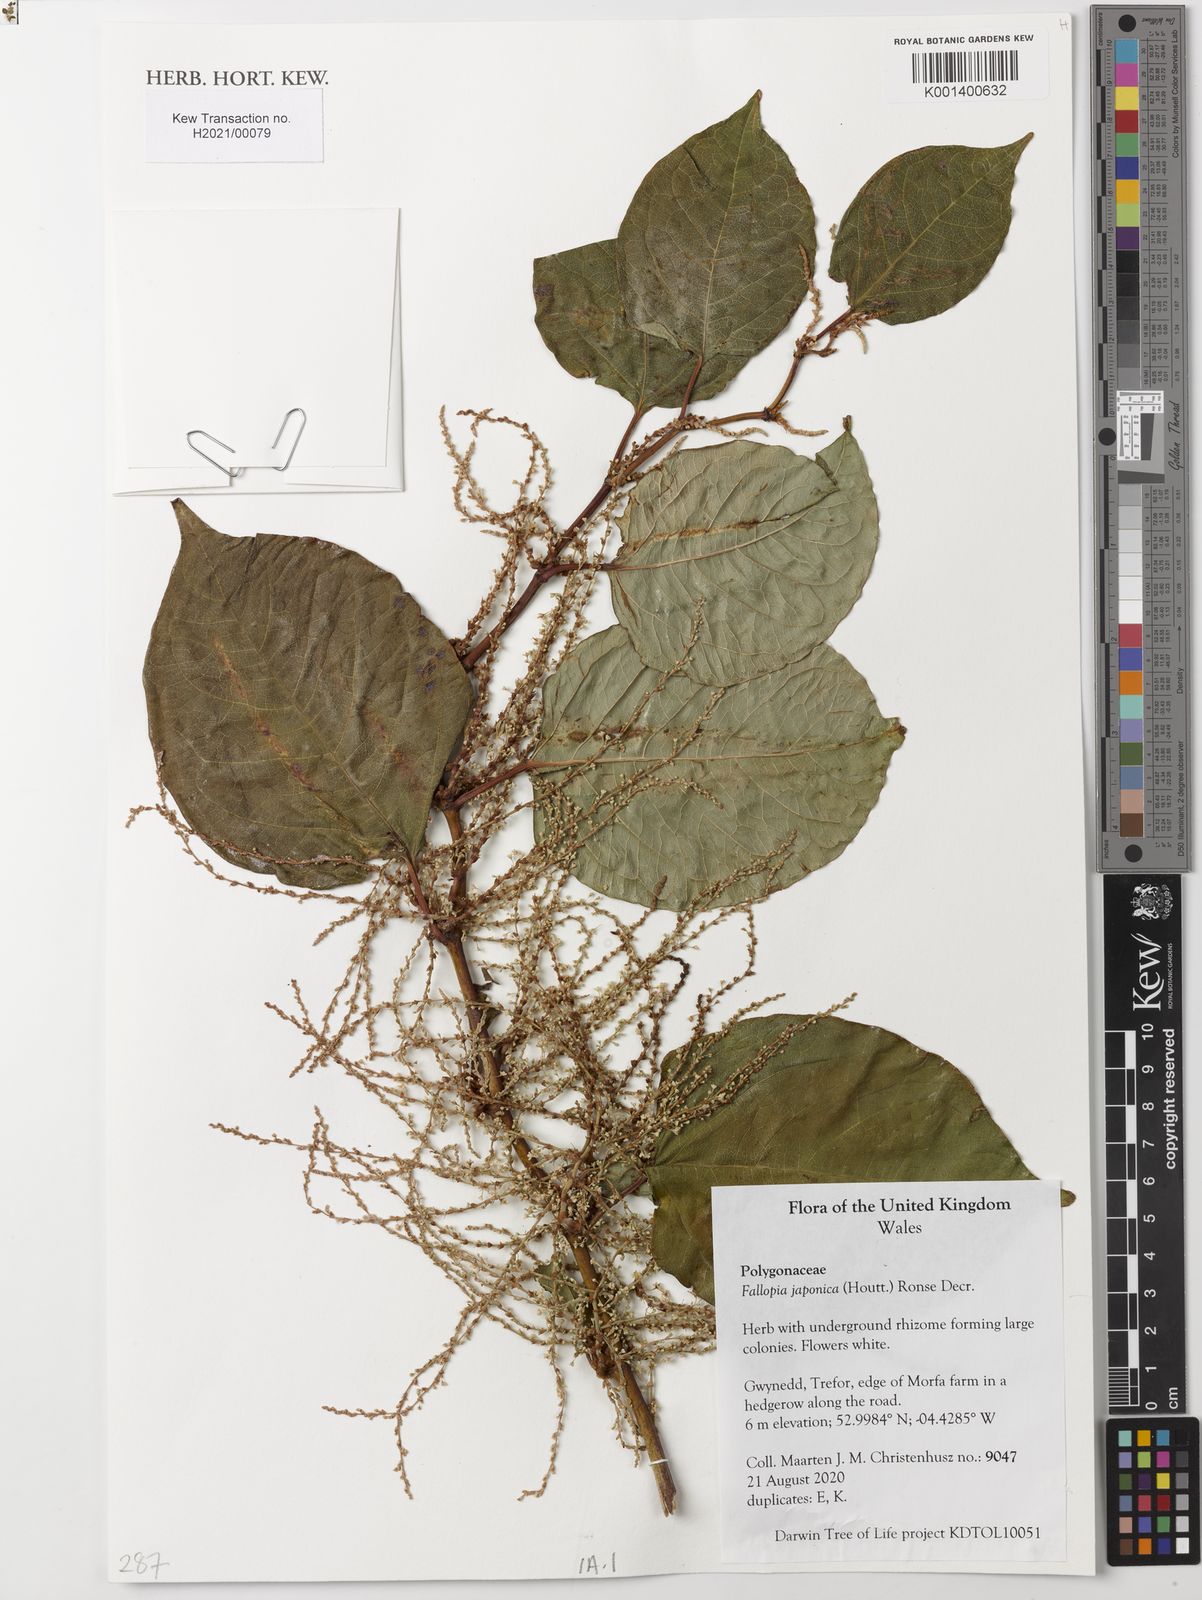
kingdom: Plantae
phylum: Tracheophyta
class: Magnoliopsida
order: Caryophyllales
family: Polygonaceae
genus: Reynoutria
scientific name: Reynoutria japonica
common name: Japanese knotweed
